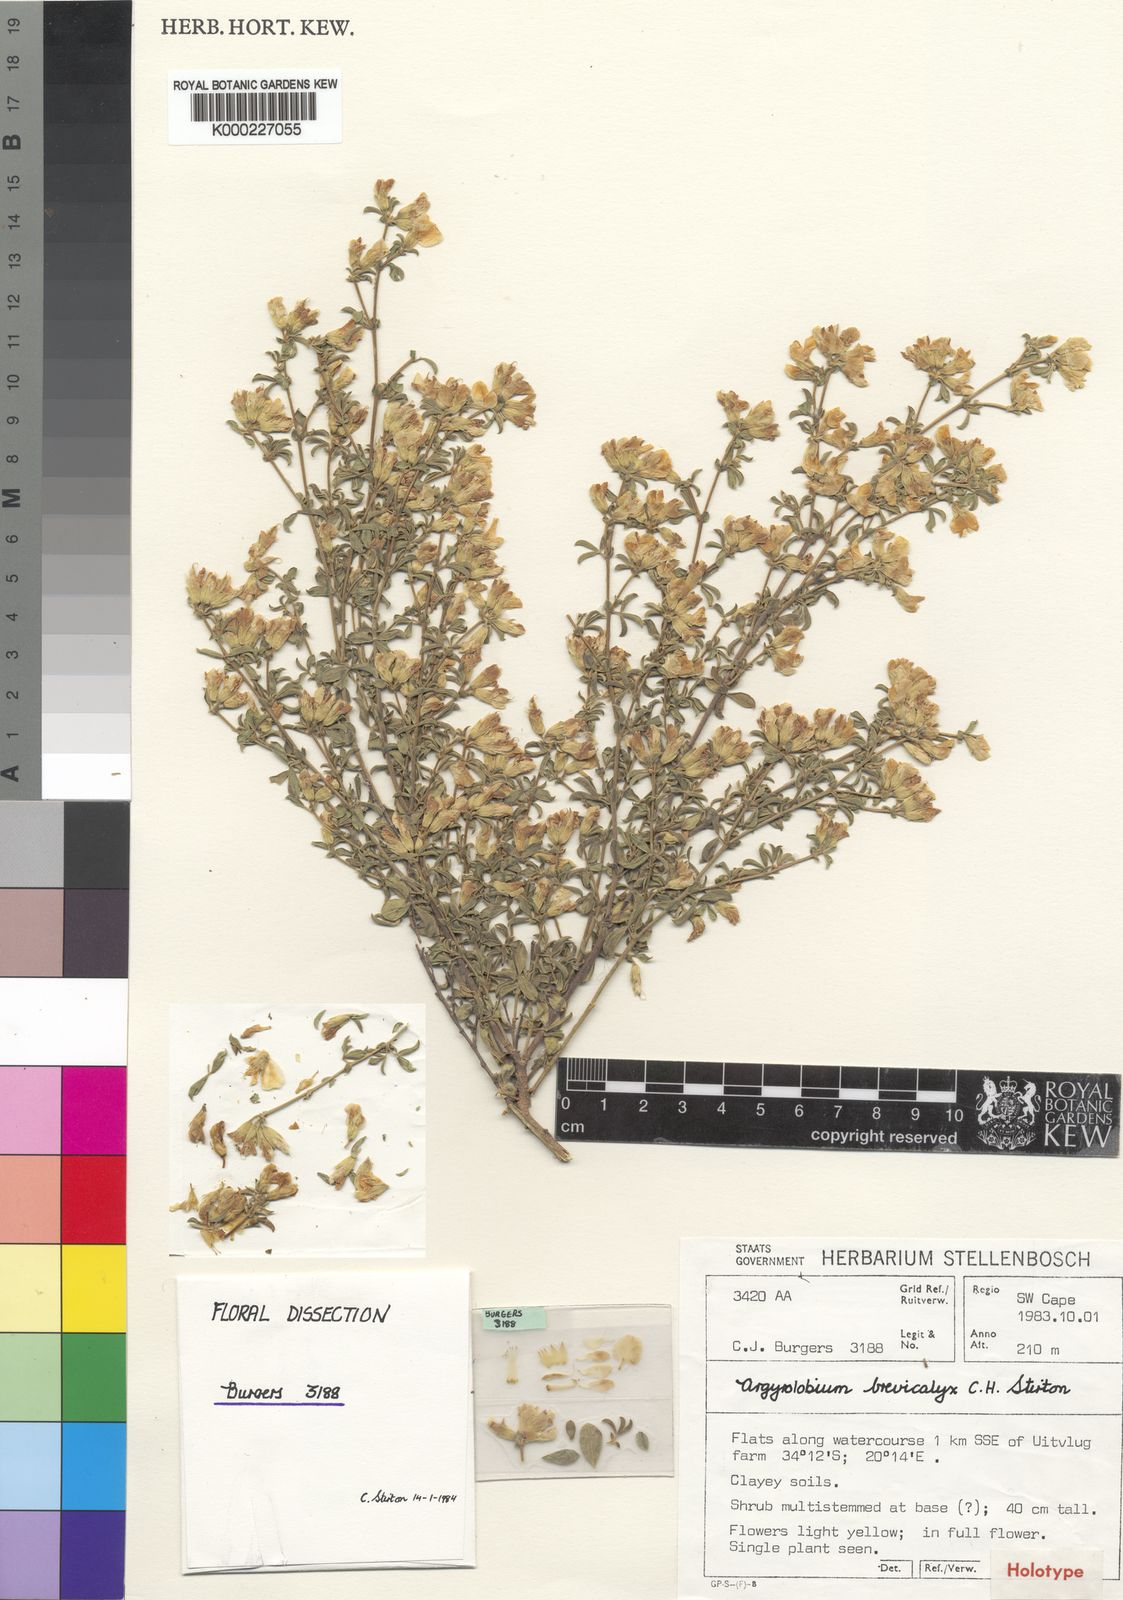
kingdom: Plantae
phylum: Tracheophyta
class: Magnoliopsida
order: Fabales
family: Fabaceae
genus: Polhillia
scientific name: Polhillia brevicalyx
